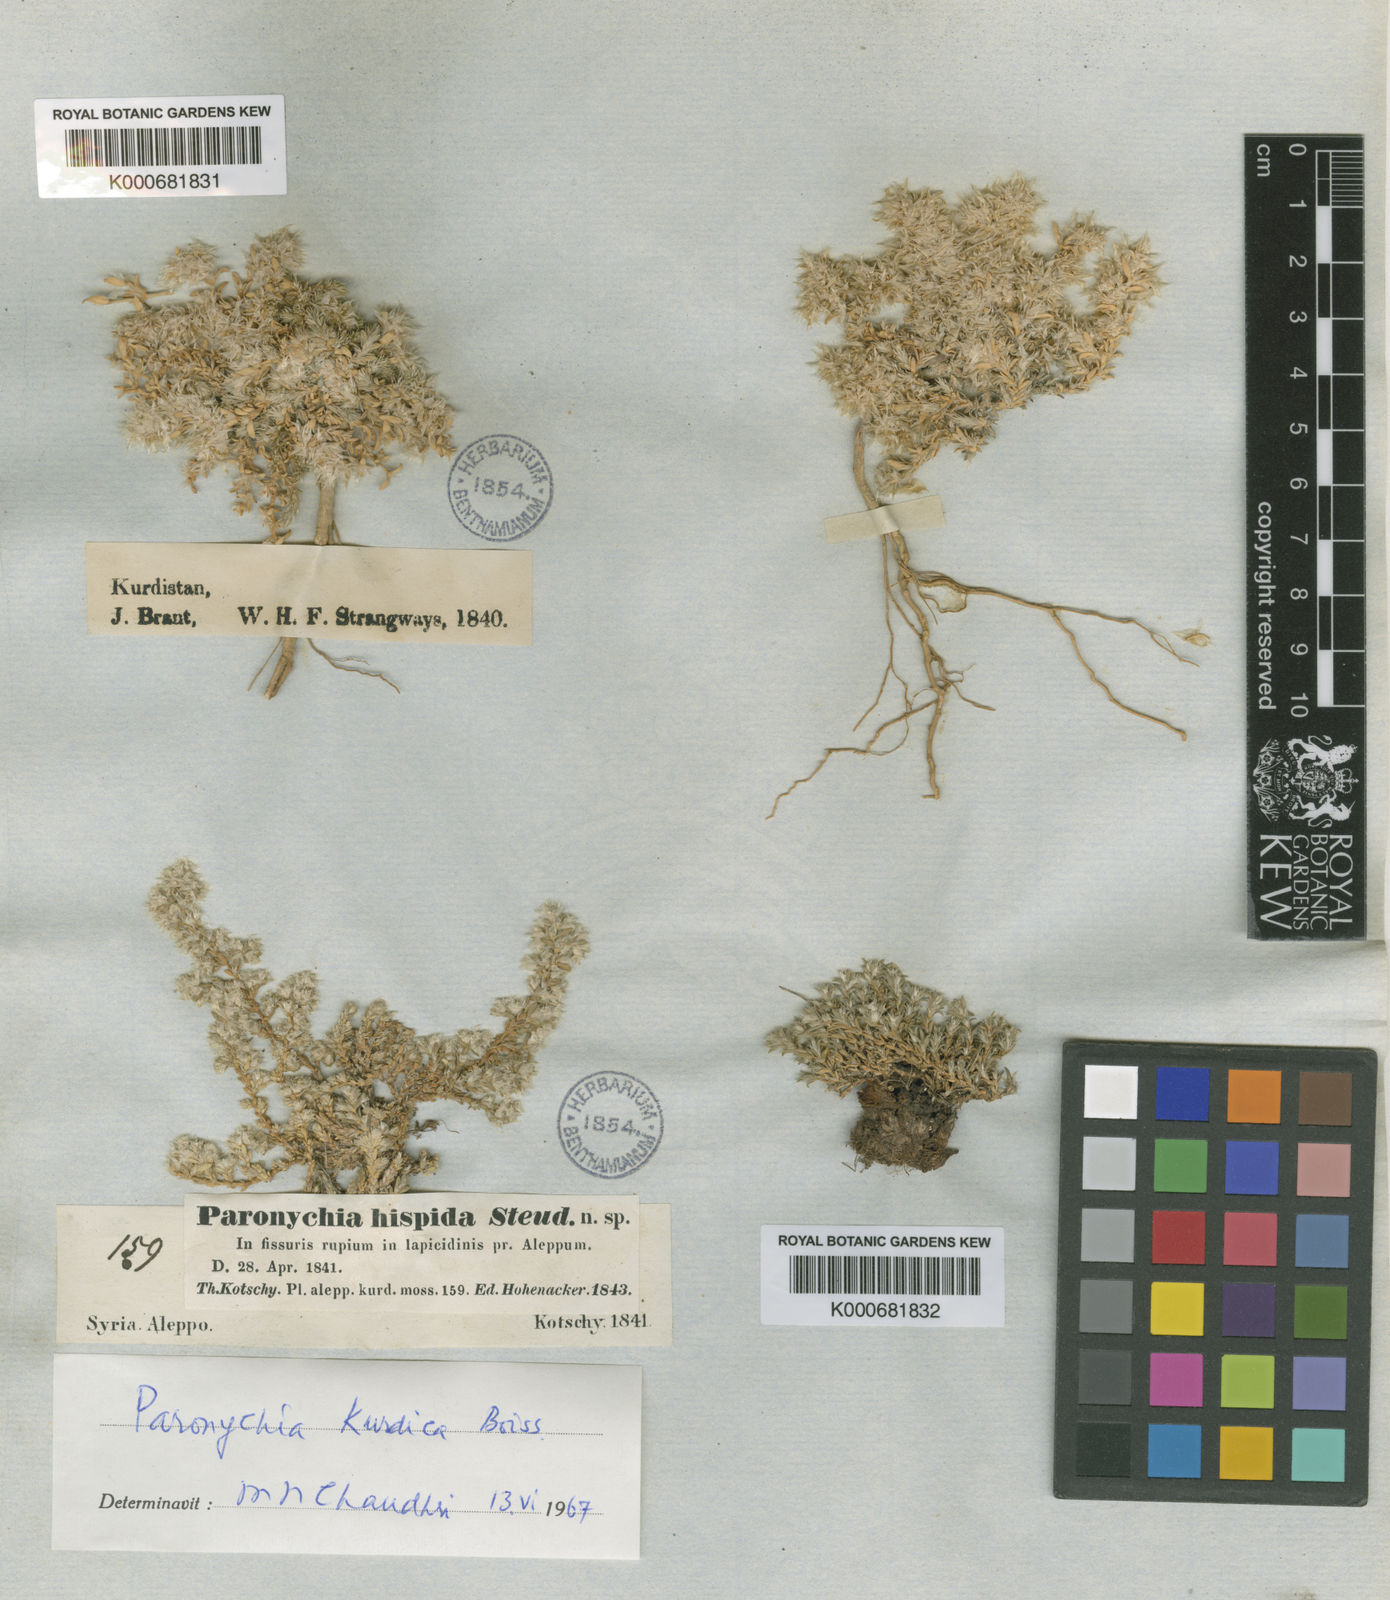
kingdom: Plantae
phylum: Tracheophyta
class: Magnoliopsida
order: Caryophyllales
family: Caryophyllaceae
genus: Paronychia
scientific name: Paronychia kurdica
